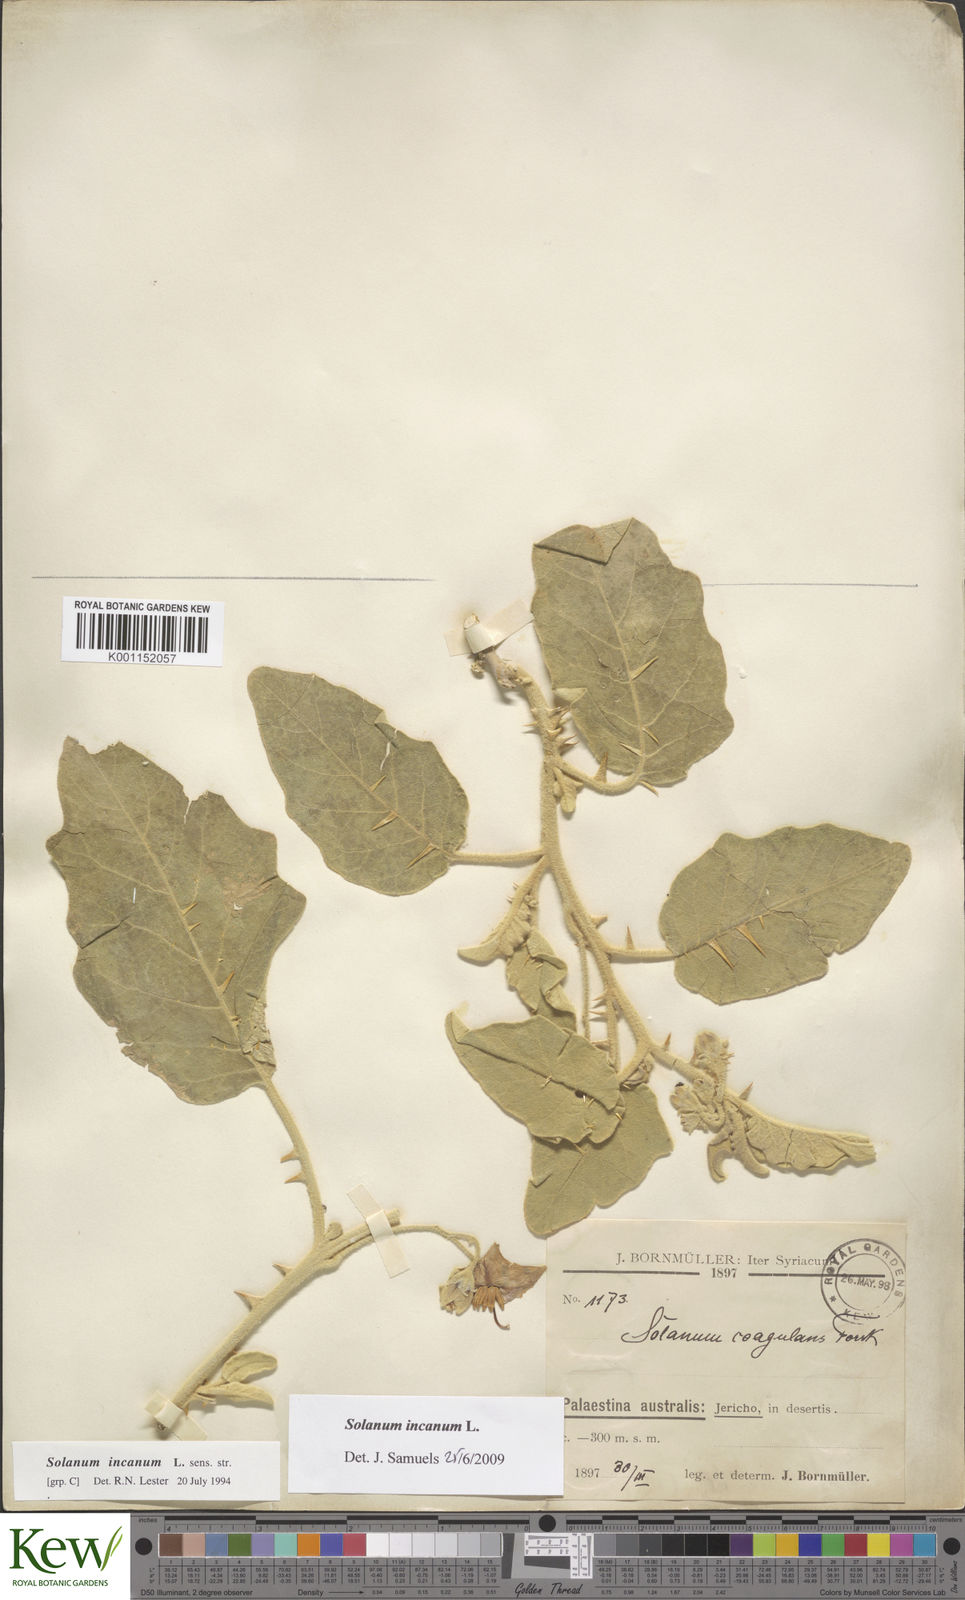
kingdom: Plantae
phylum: Tracheophyta
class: Magnoliopsida
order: Solanales
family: Solanaceae
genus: Solanum
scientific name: Solanum incanum
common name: Bitter apple
